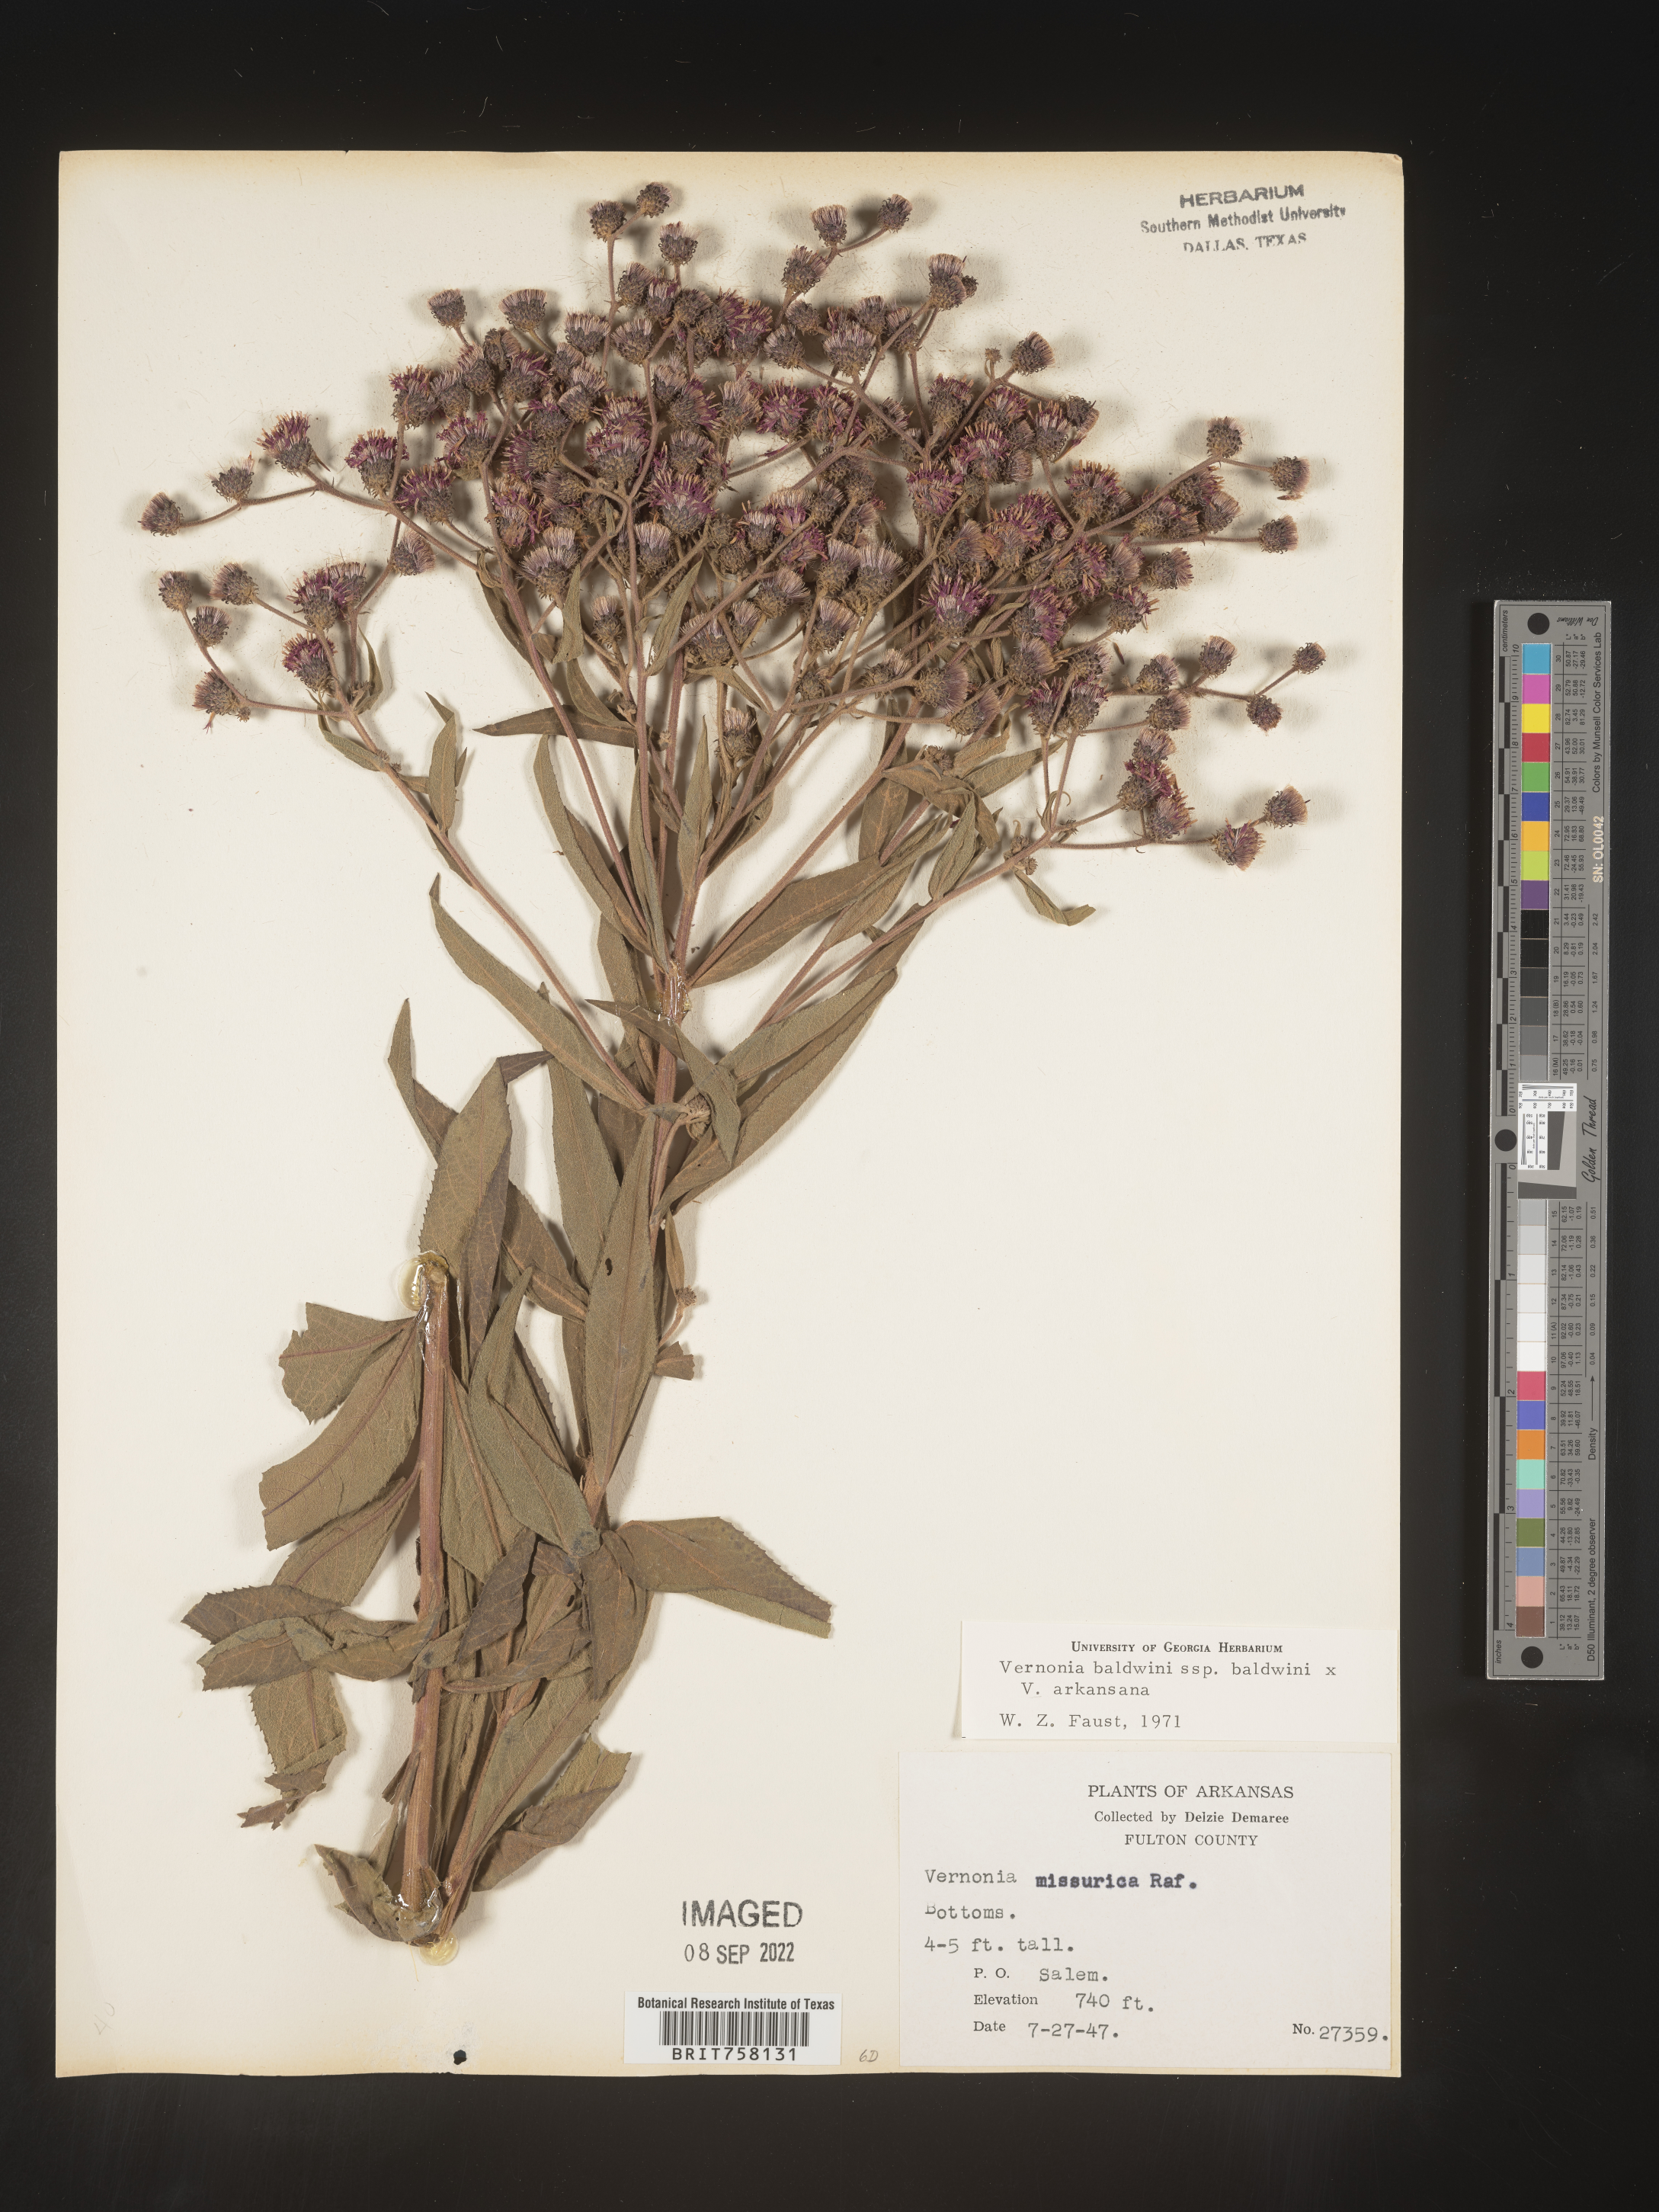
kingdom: Plantae
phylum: Tracheophyta
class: Magnoliopsida
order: Asterales
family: Asteraceae
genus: Vernonia
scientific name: Vernonia baldwinii
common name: Western ironweed
